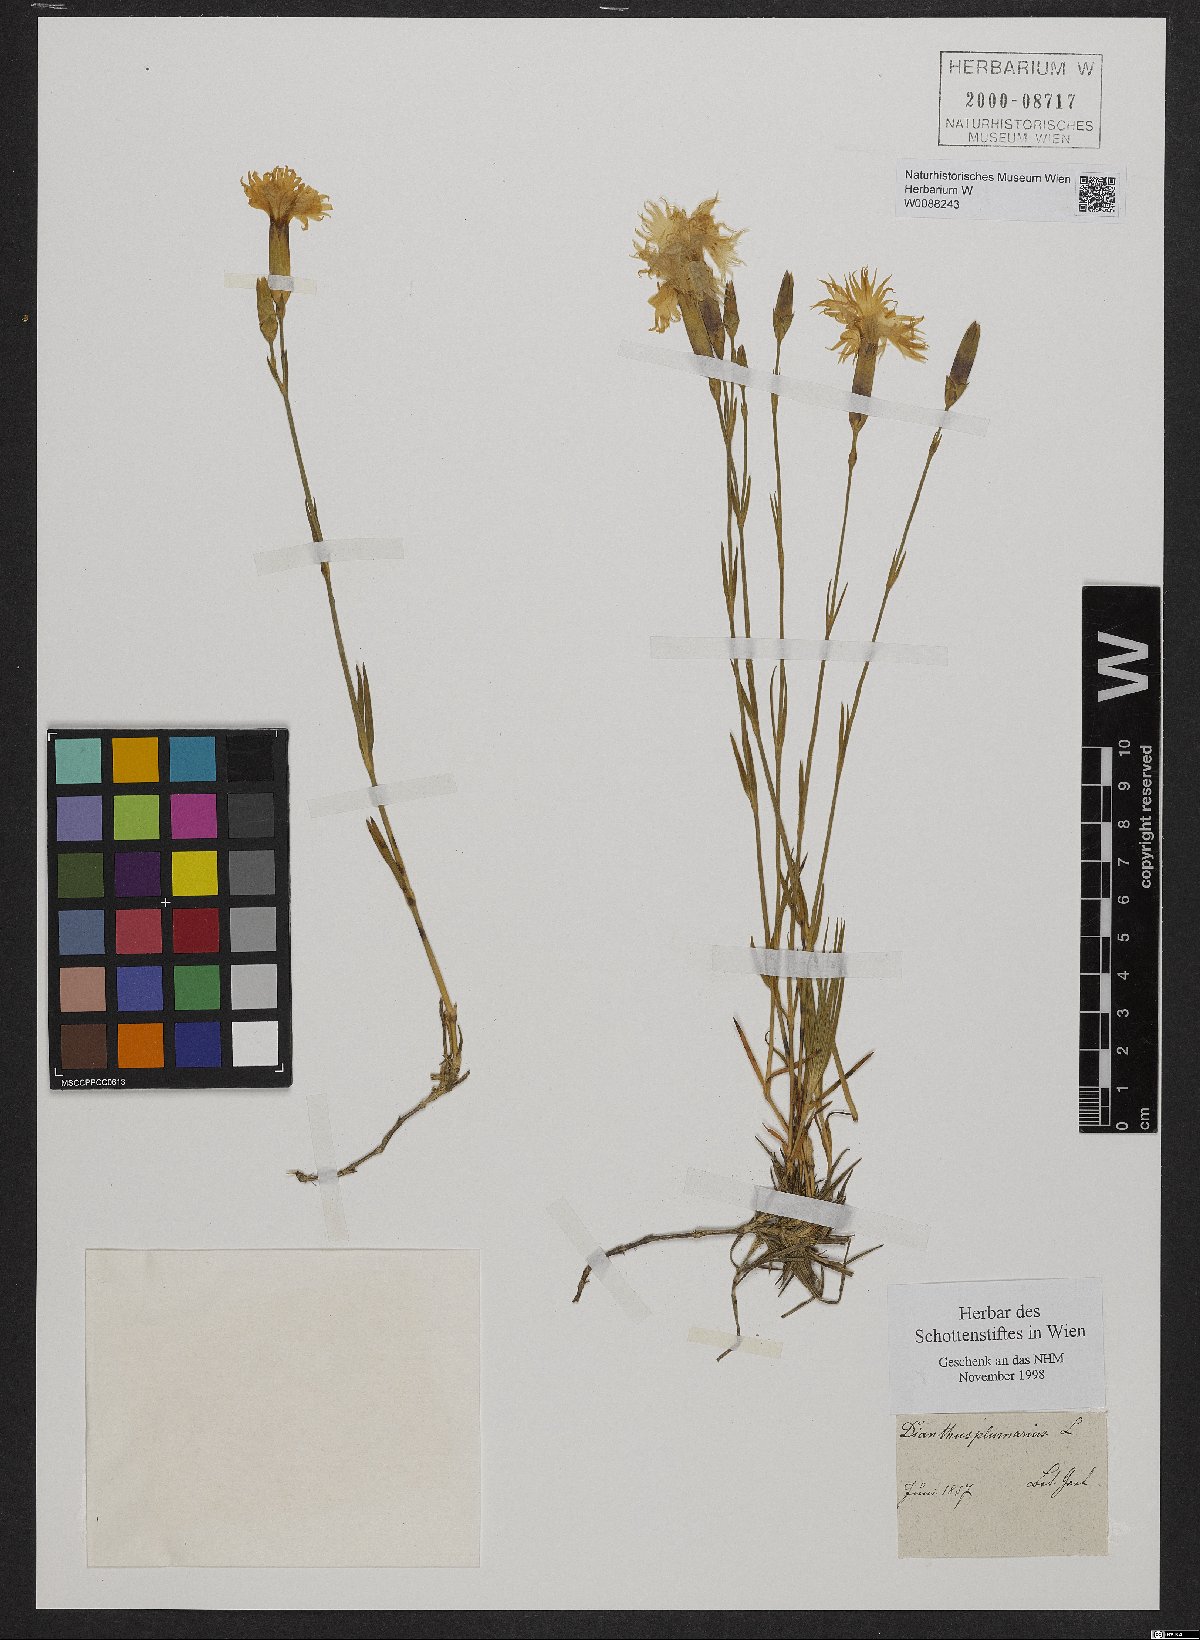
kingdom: Plantae
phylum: Tracheophyta
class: Magnoliopsida
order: Caryophyllales
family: Caryophyllaceae
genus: Dianthus
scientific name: Dianthus plumarius
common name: Pink
